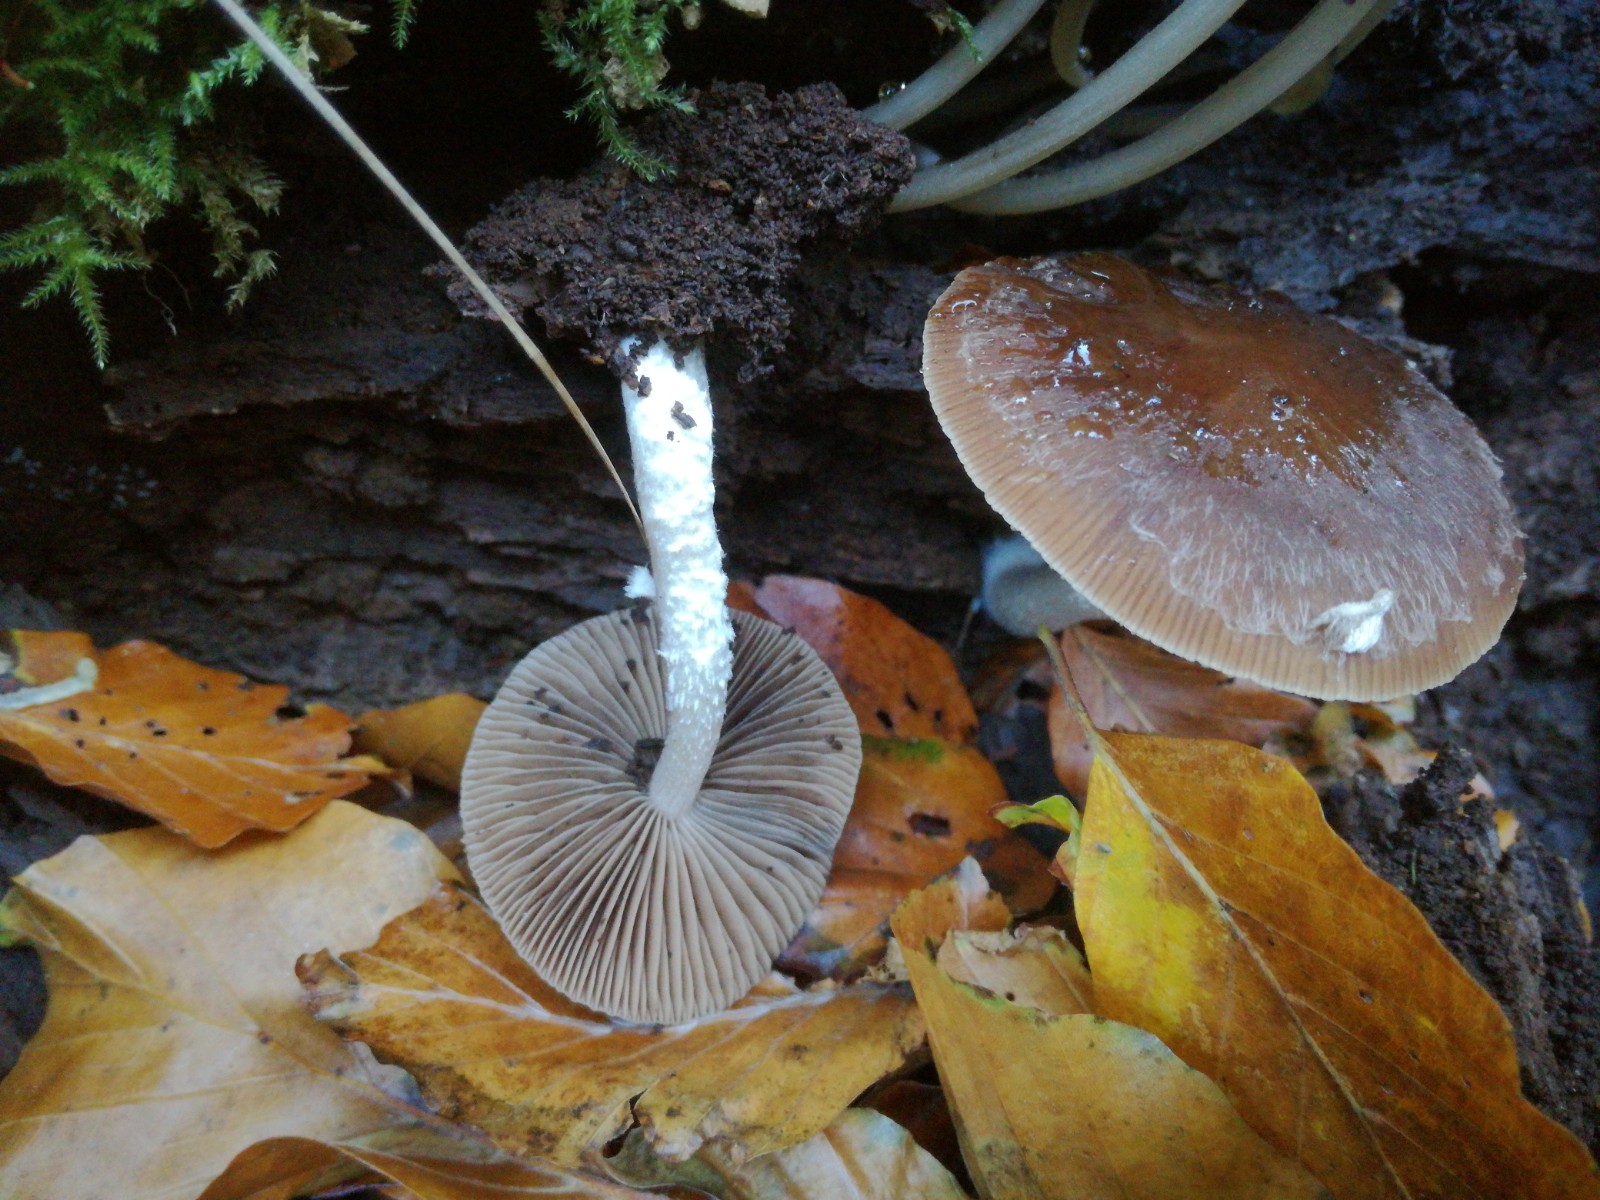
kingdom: Fungi
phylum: Basidiomycota
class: Agaricomycetes
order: Agaricales
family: Psathyrellaceae
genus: Psathyrella
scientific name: Psathyrella fagetophila
